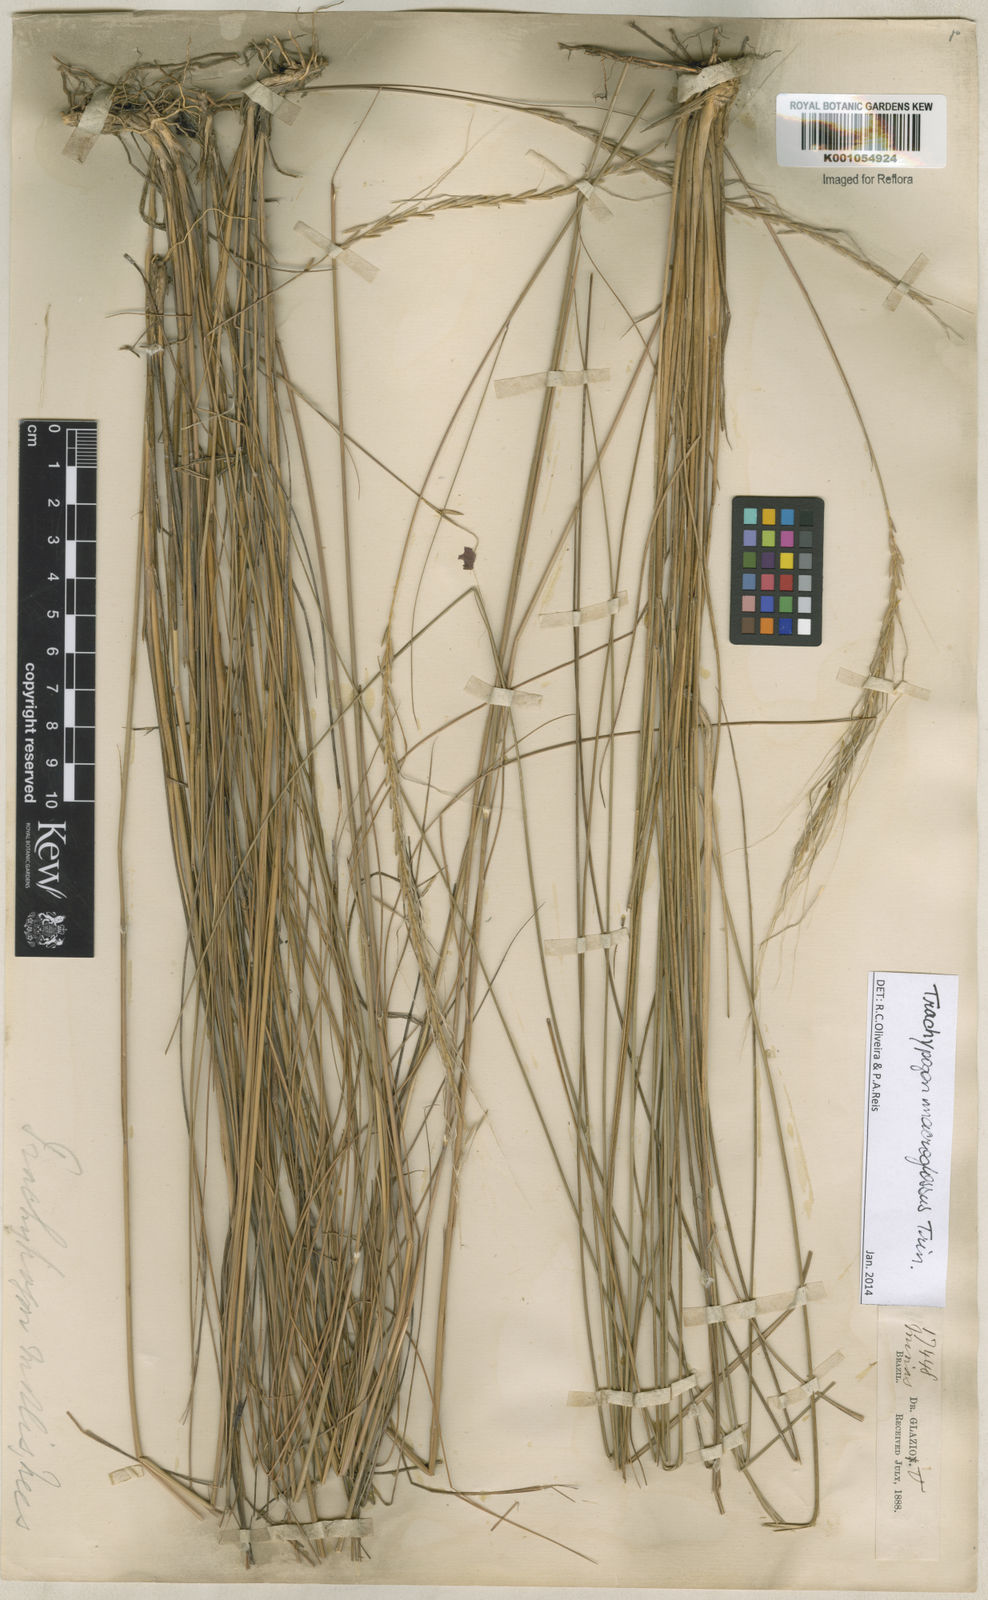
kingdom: Plantae
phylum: Tracheophyta
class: Liliopsida
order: Poales
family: Poaceae
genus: Trachypogon
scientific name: Trachypogon macroglossus
